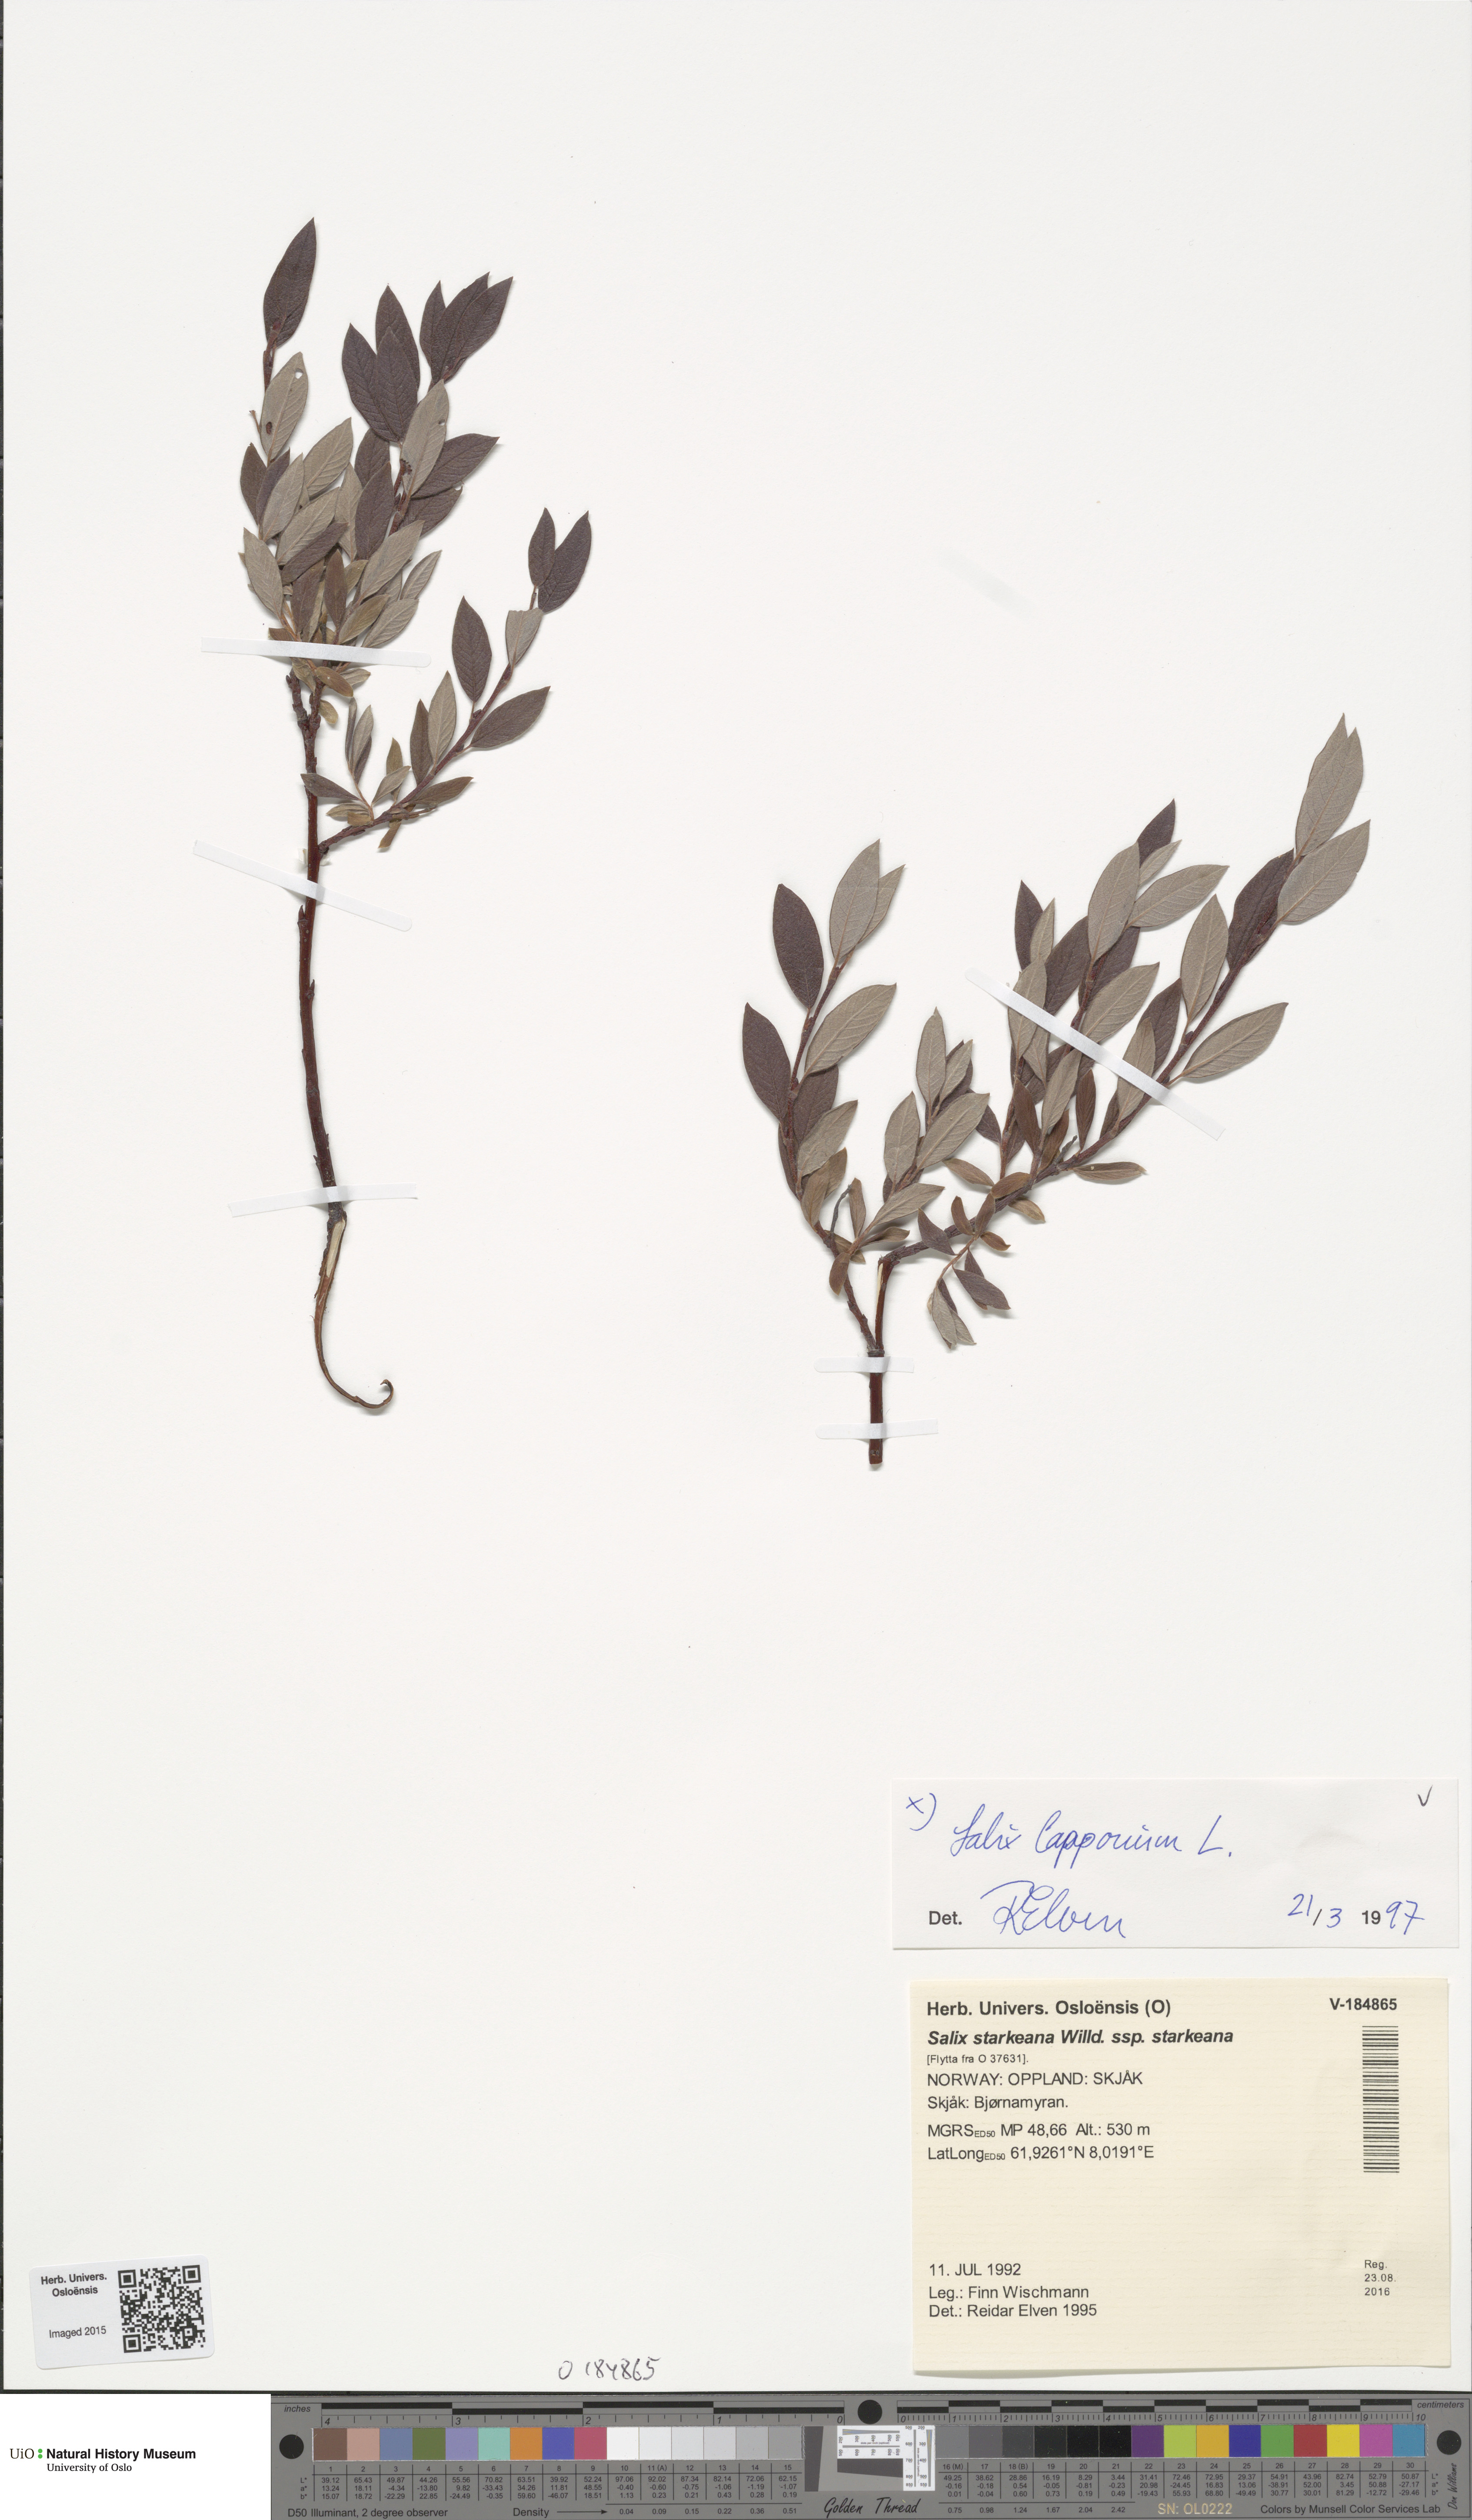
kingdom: Plantae
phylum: Tracheophyta
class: Magnoliopsida
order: Malpighiales
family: Salicaceae
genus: Salix
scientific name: Salix lapponum
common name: Downy willow
